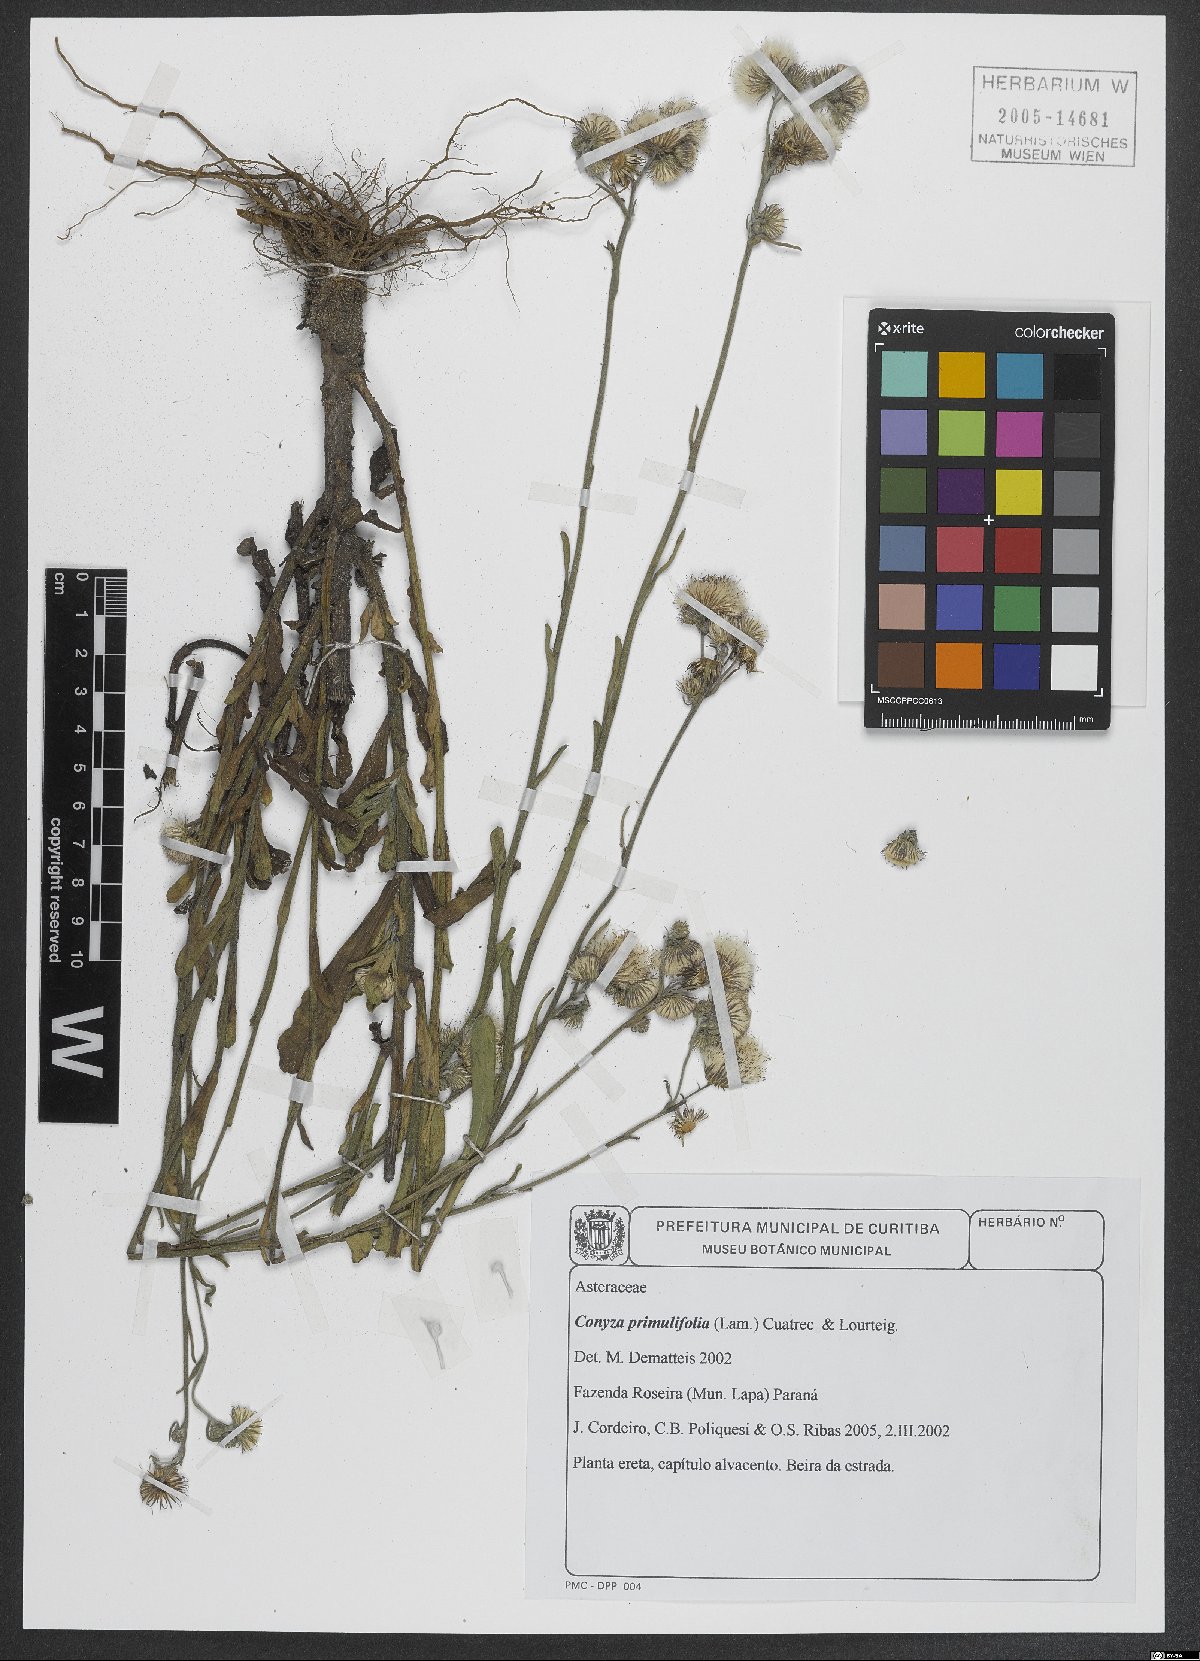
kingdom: Plantae
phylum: Tracheophyta
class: Magnoliopsida
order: Asterales
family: Asteraceae
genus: Erigeron
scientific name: Erigeron primulifolius
